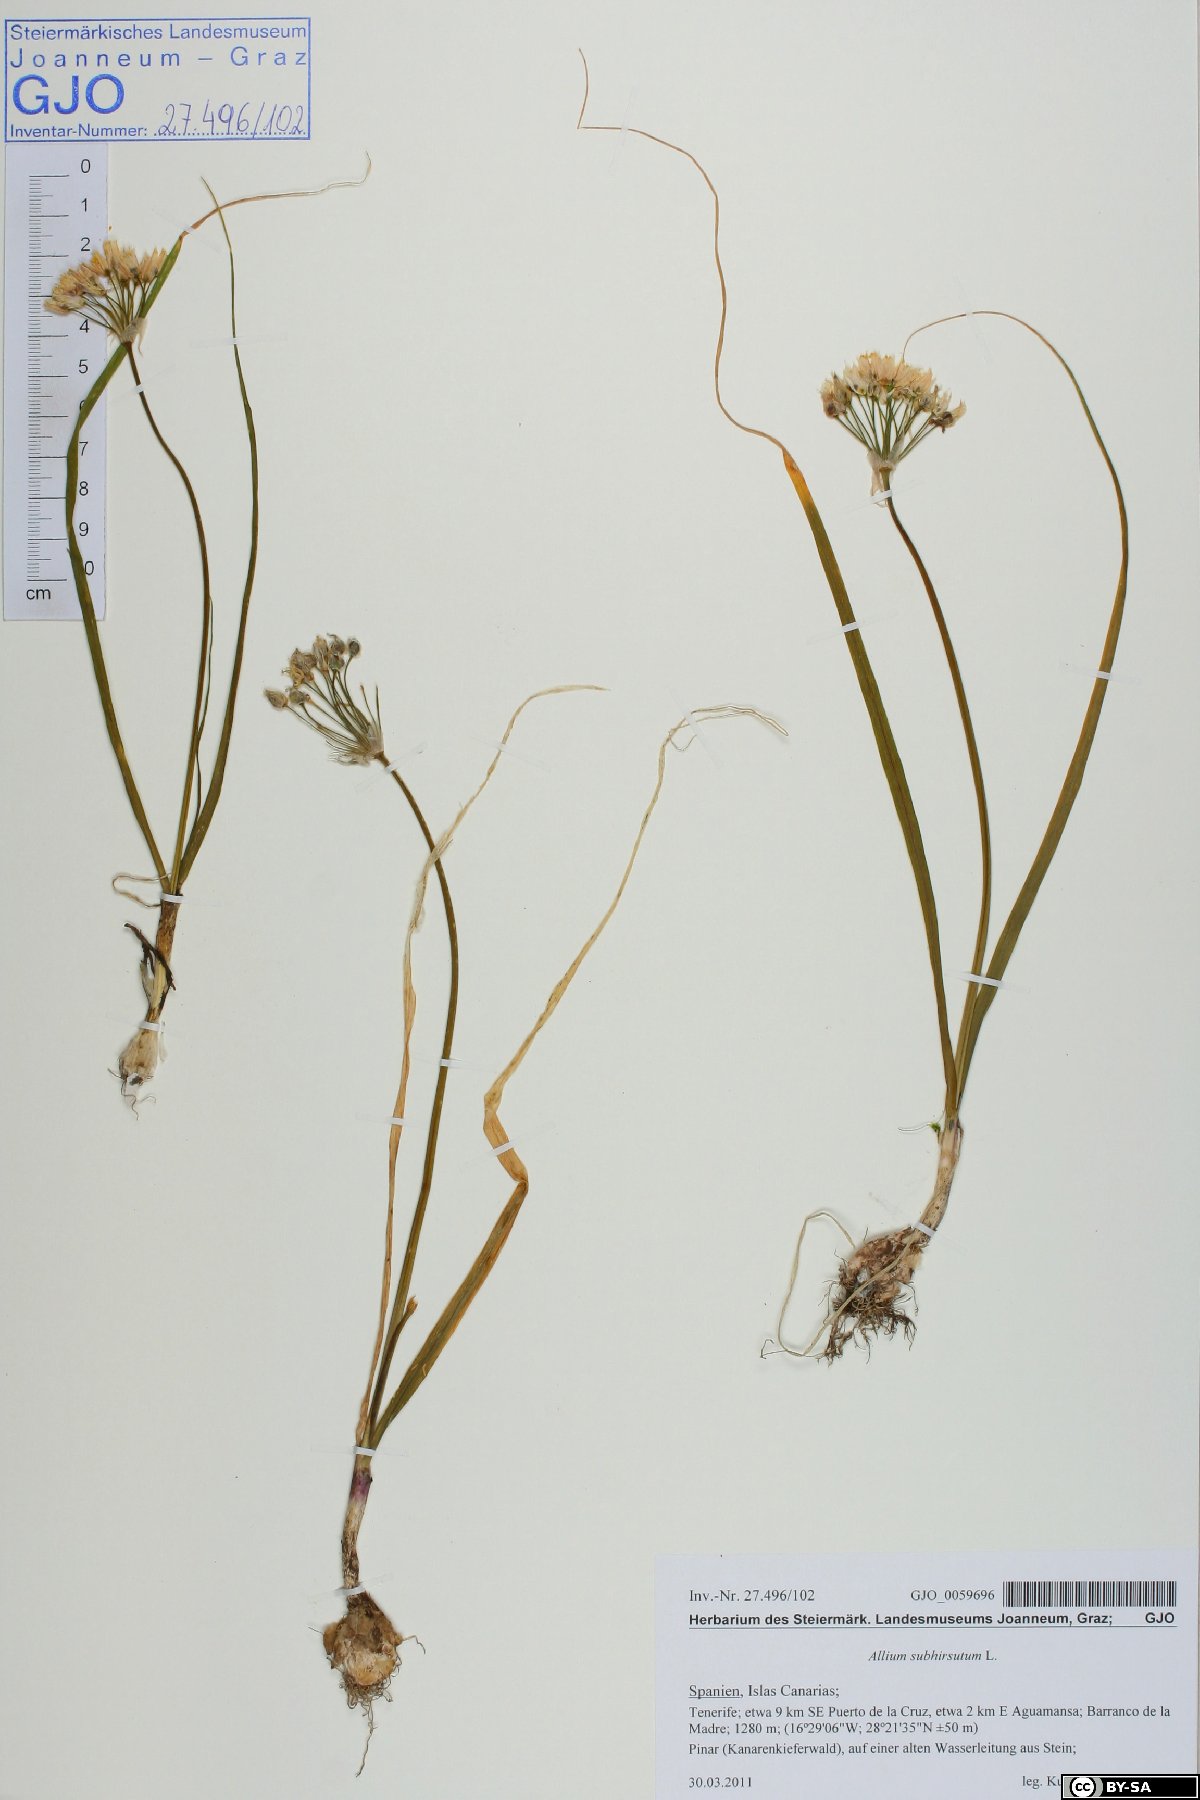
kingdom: Plantae
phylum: Tracheophyta
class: Liliopsida
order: Asparagales
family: Amaryllidaceae
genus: Allium
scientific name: Allium subhirsutum
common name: Hairy garlic
